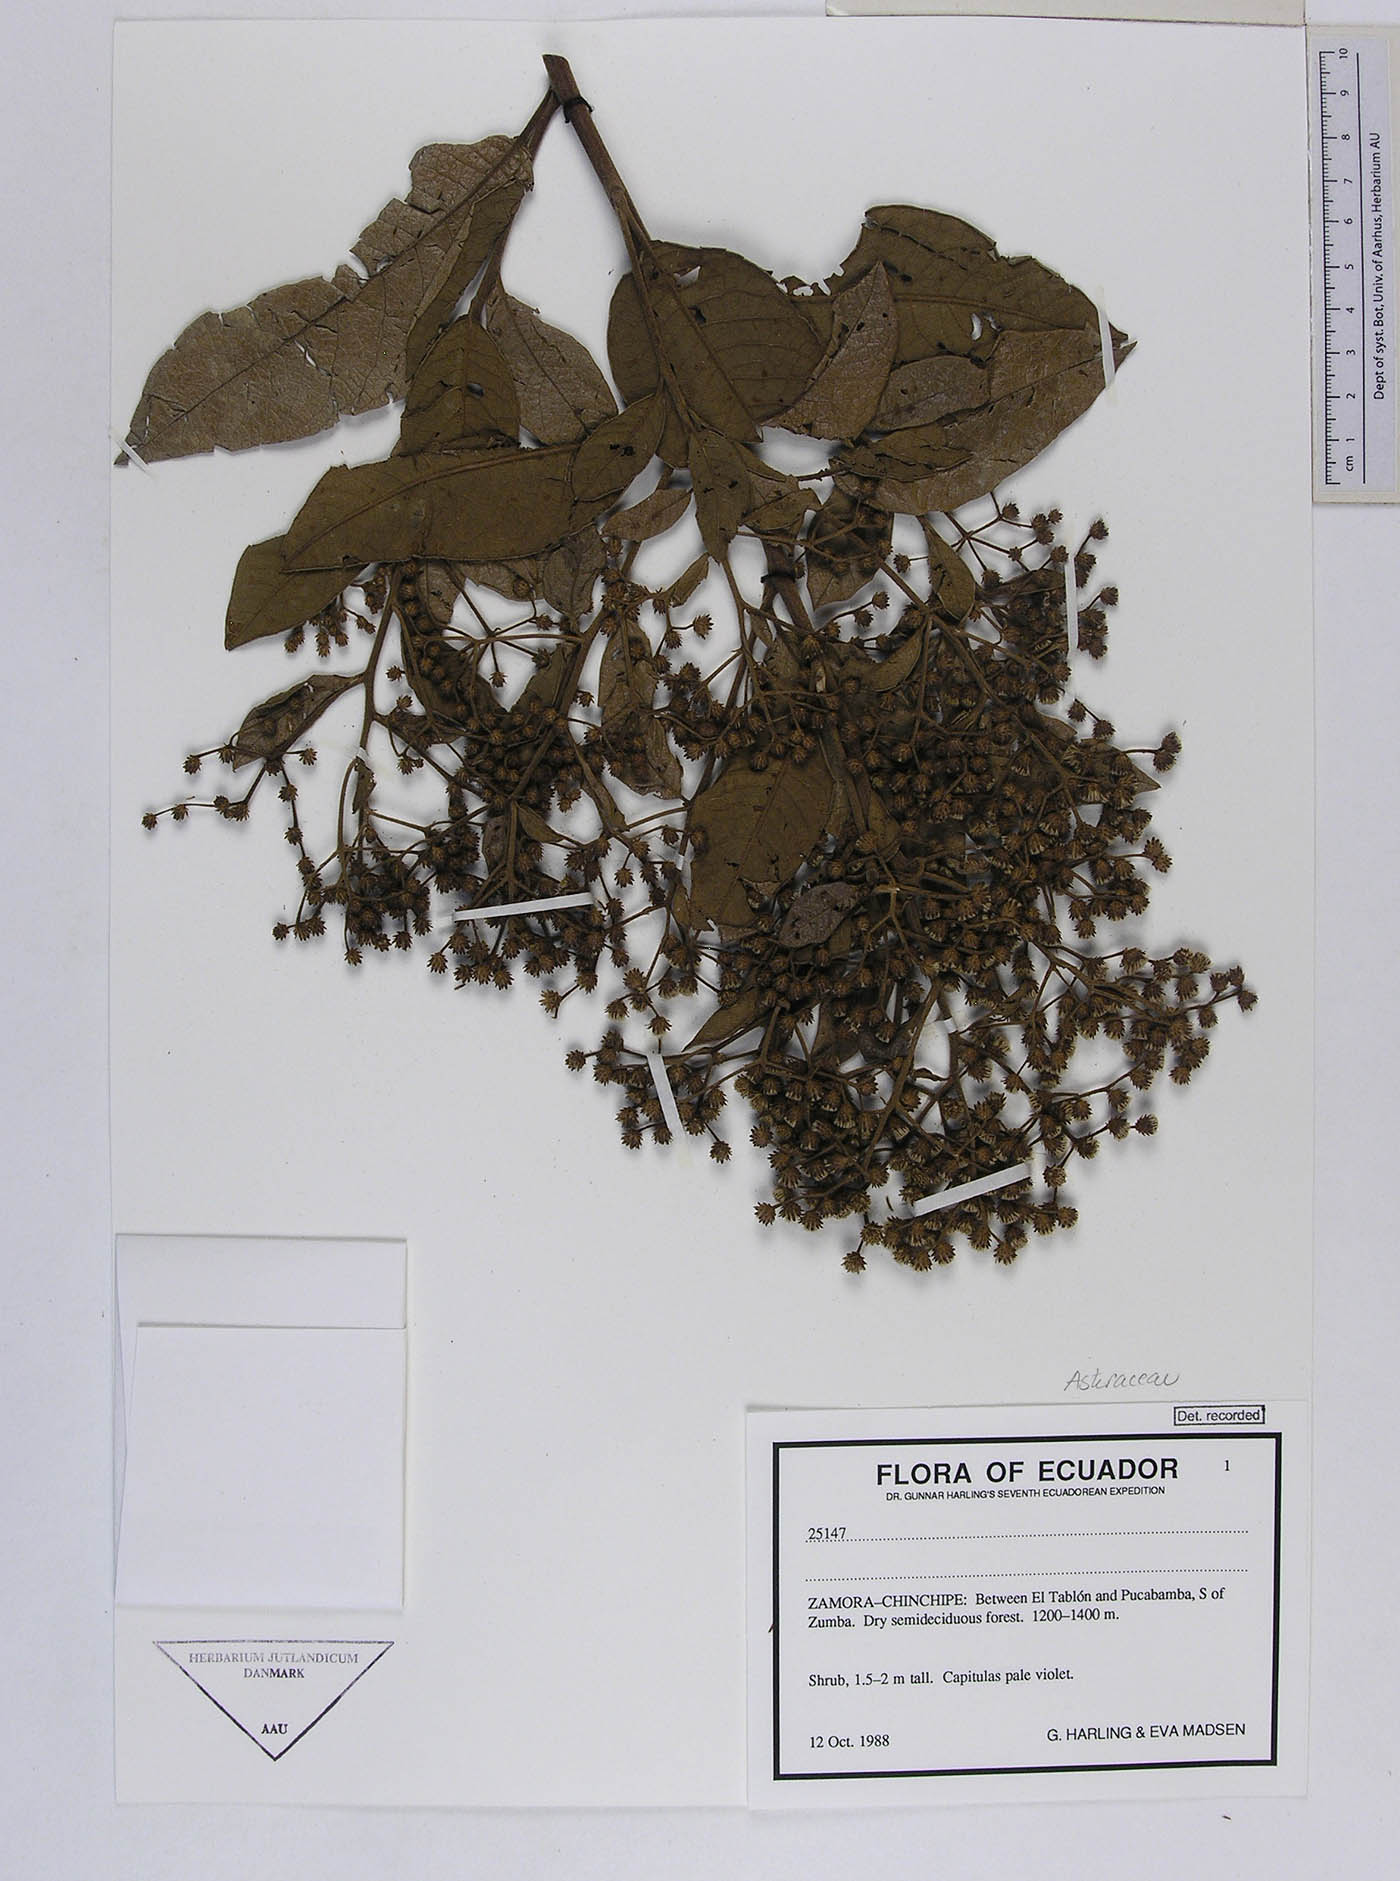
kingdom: Plantae
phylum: Tracheophyta
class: Magnoliopsida
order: Asterales
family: Asteraceae
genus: Vernonanthura
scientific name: Vernonanthura patens
